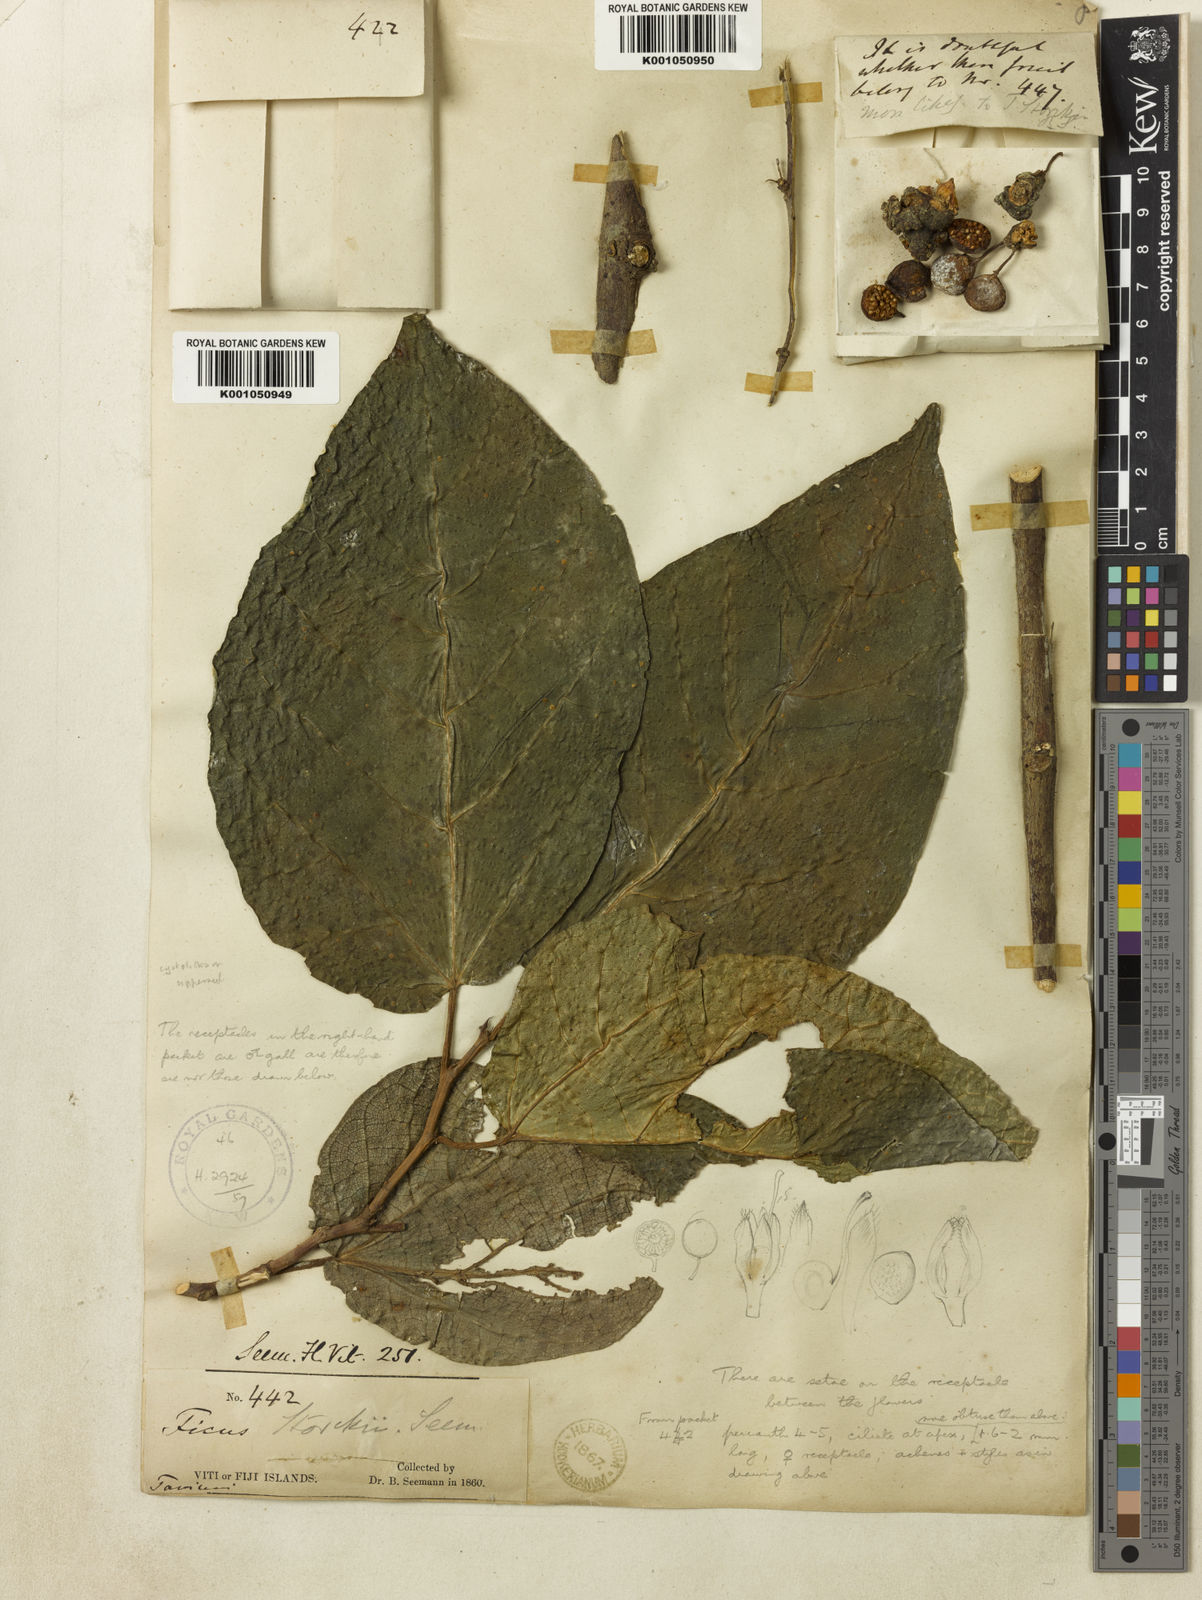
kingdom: Plantae
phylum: Tracheophyta
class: Magnoliopsida
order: Rosales
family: Moraceae
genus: Ficus
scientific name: Ficus storckii
